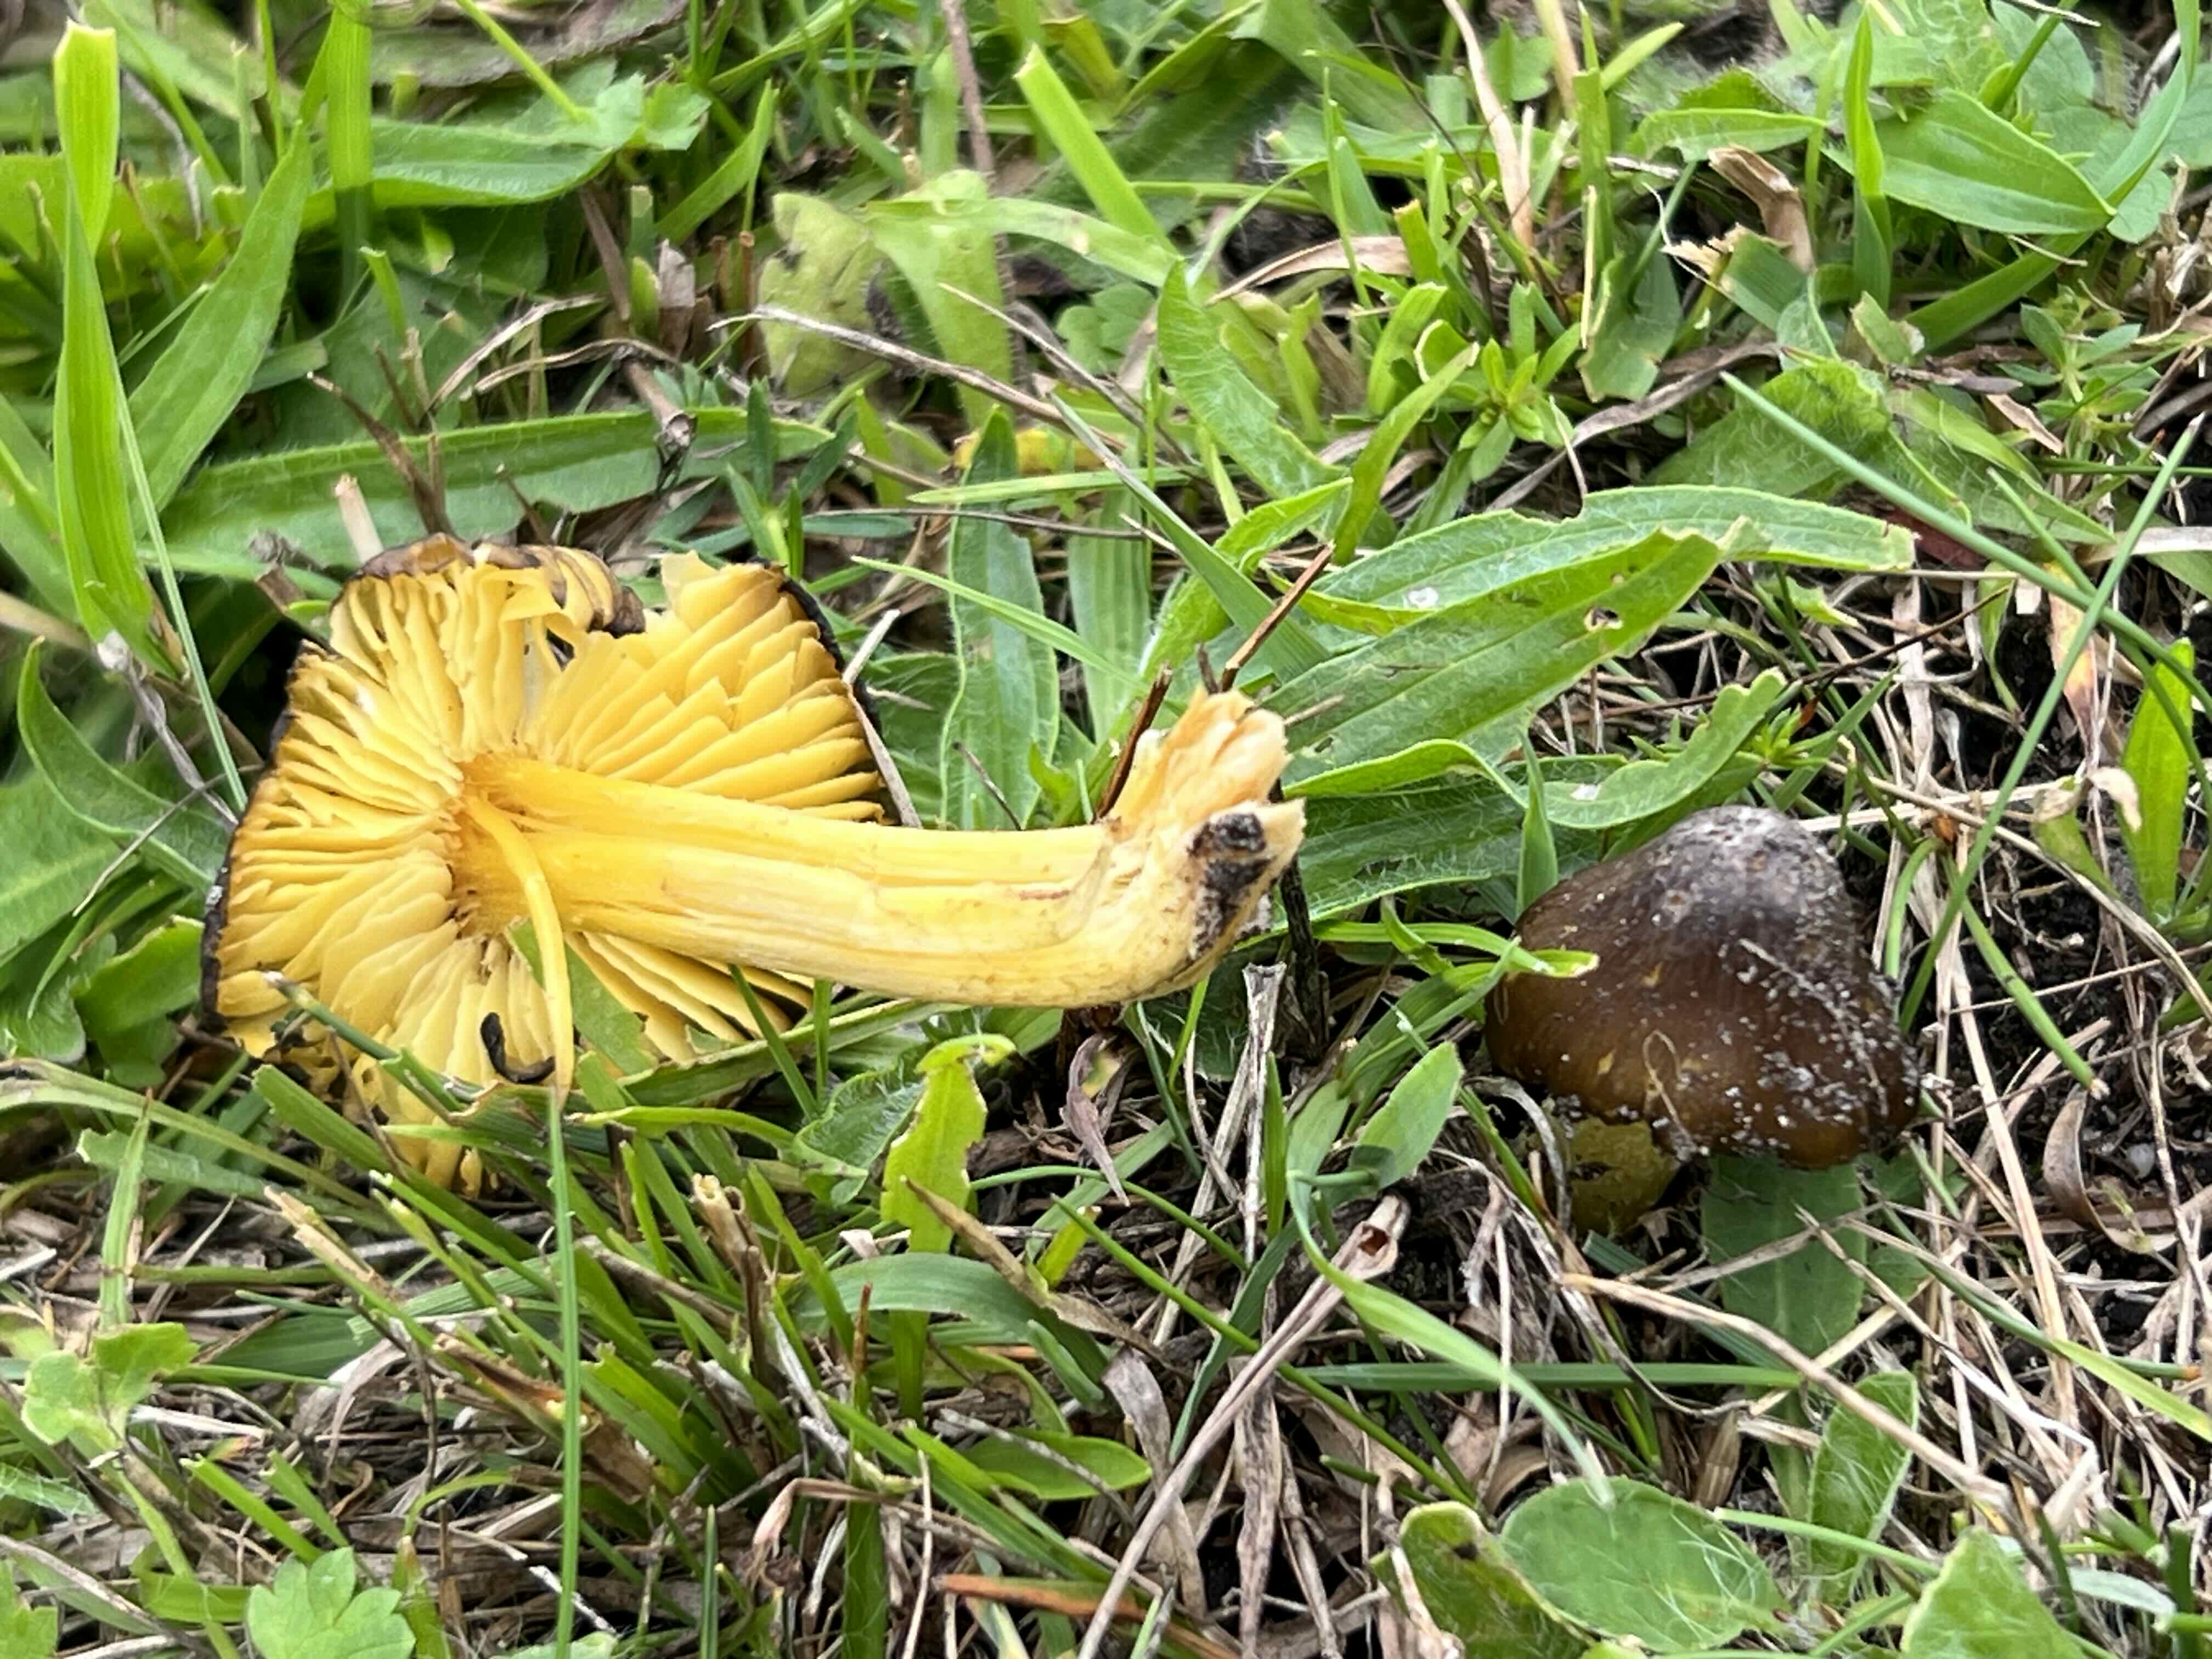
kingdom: Fungi
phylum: Basidiomycota
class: Agaricomycetes
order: Agaricales
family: Hygrophoraceae
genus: Hygrocybe
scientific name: Hygrocybe spadicea
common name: daddelbrun vokshat
